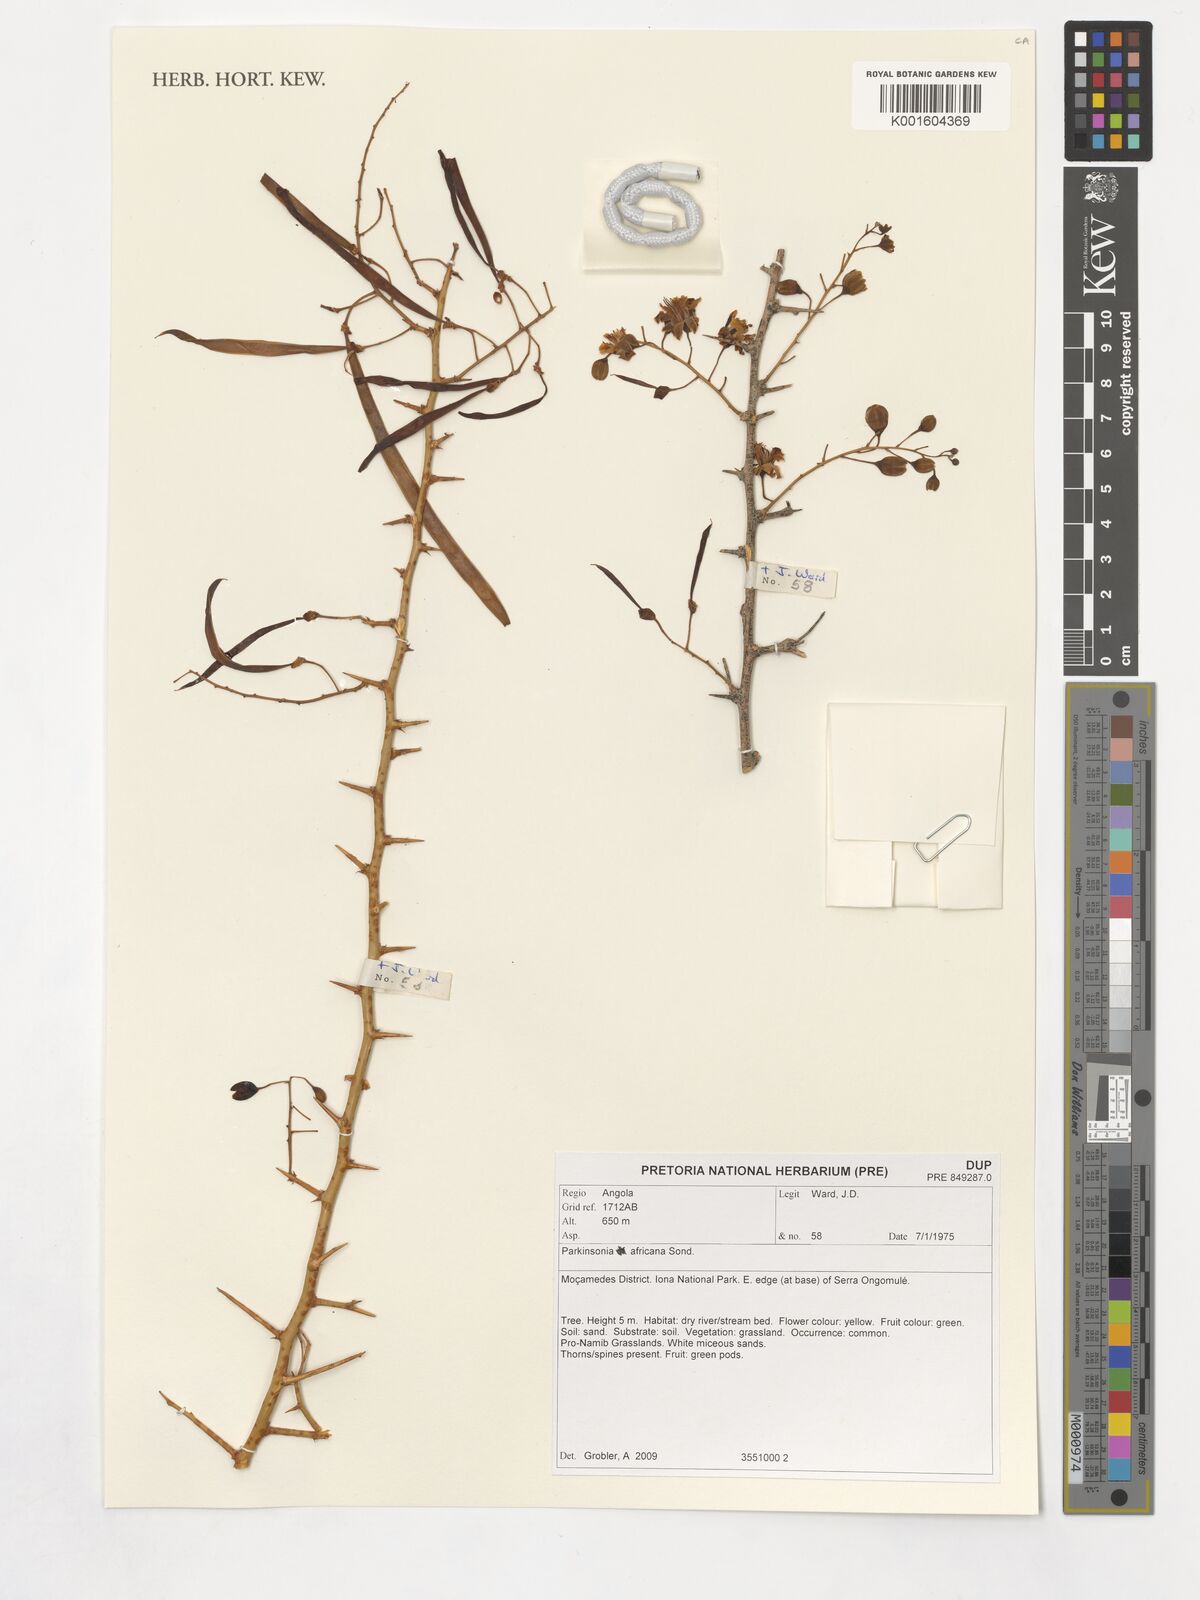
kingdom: Plantae
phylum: Tracheophyta
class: Magnoliopsida
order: Fabales
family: Fabaceae
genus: Parkinsonia
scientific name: Parkinsonia africana
